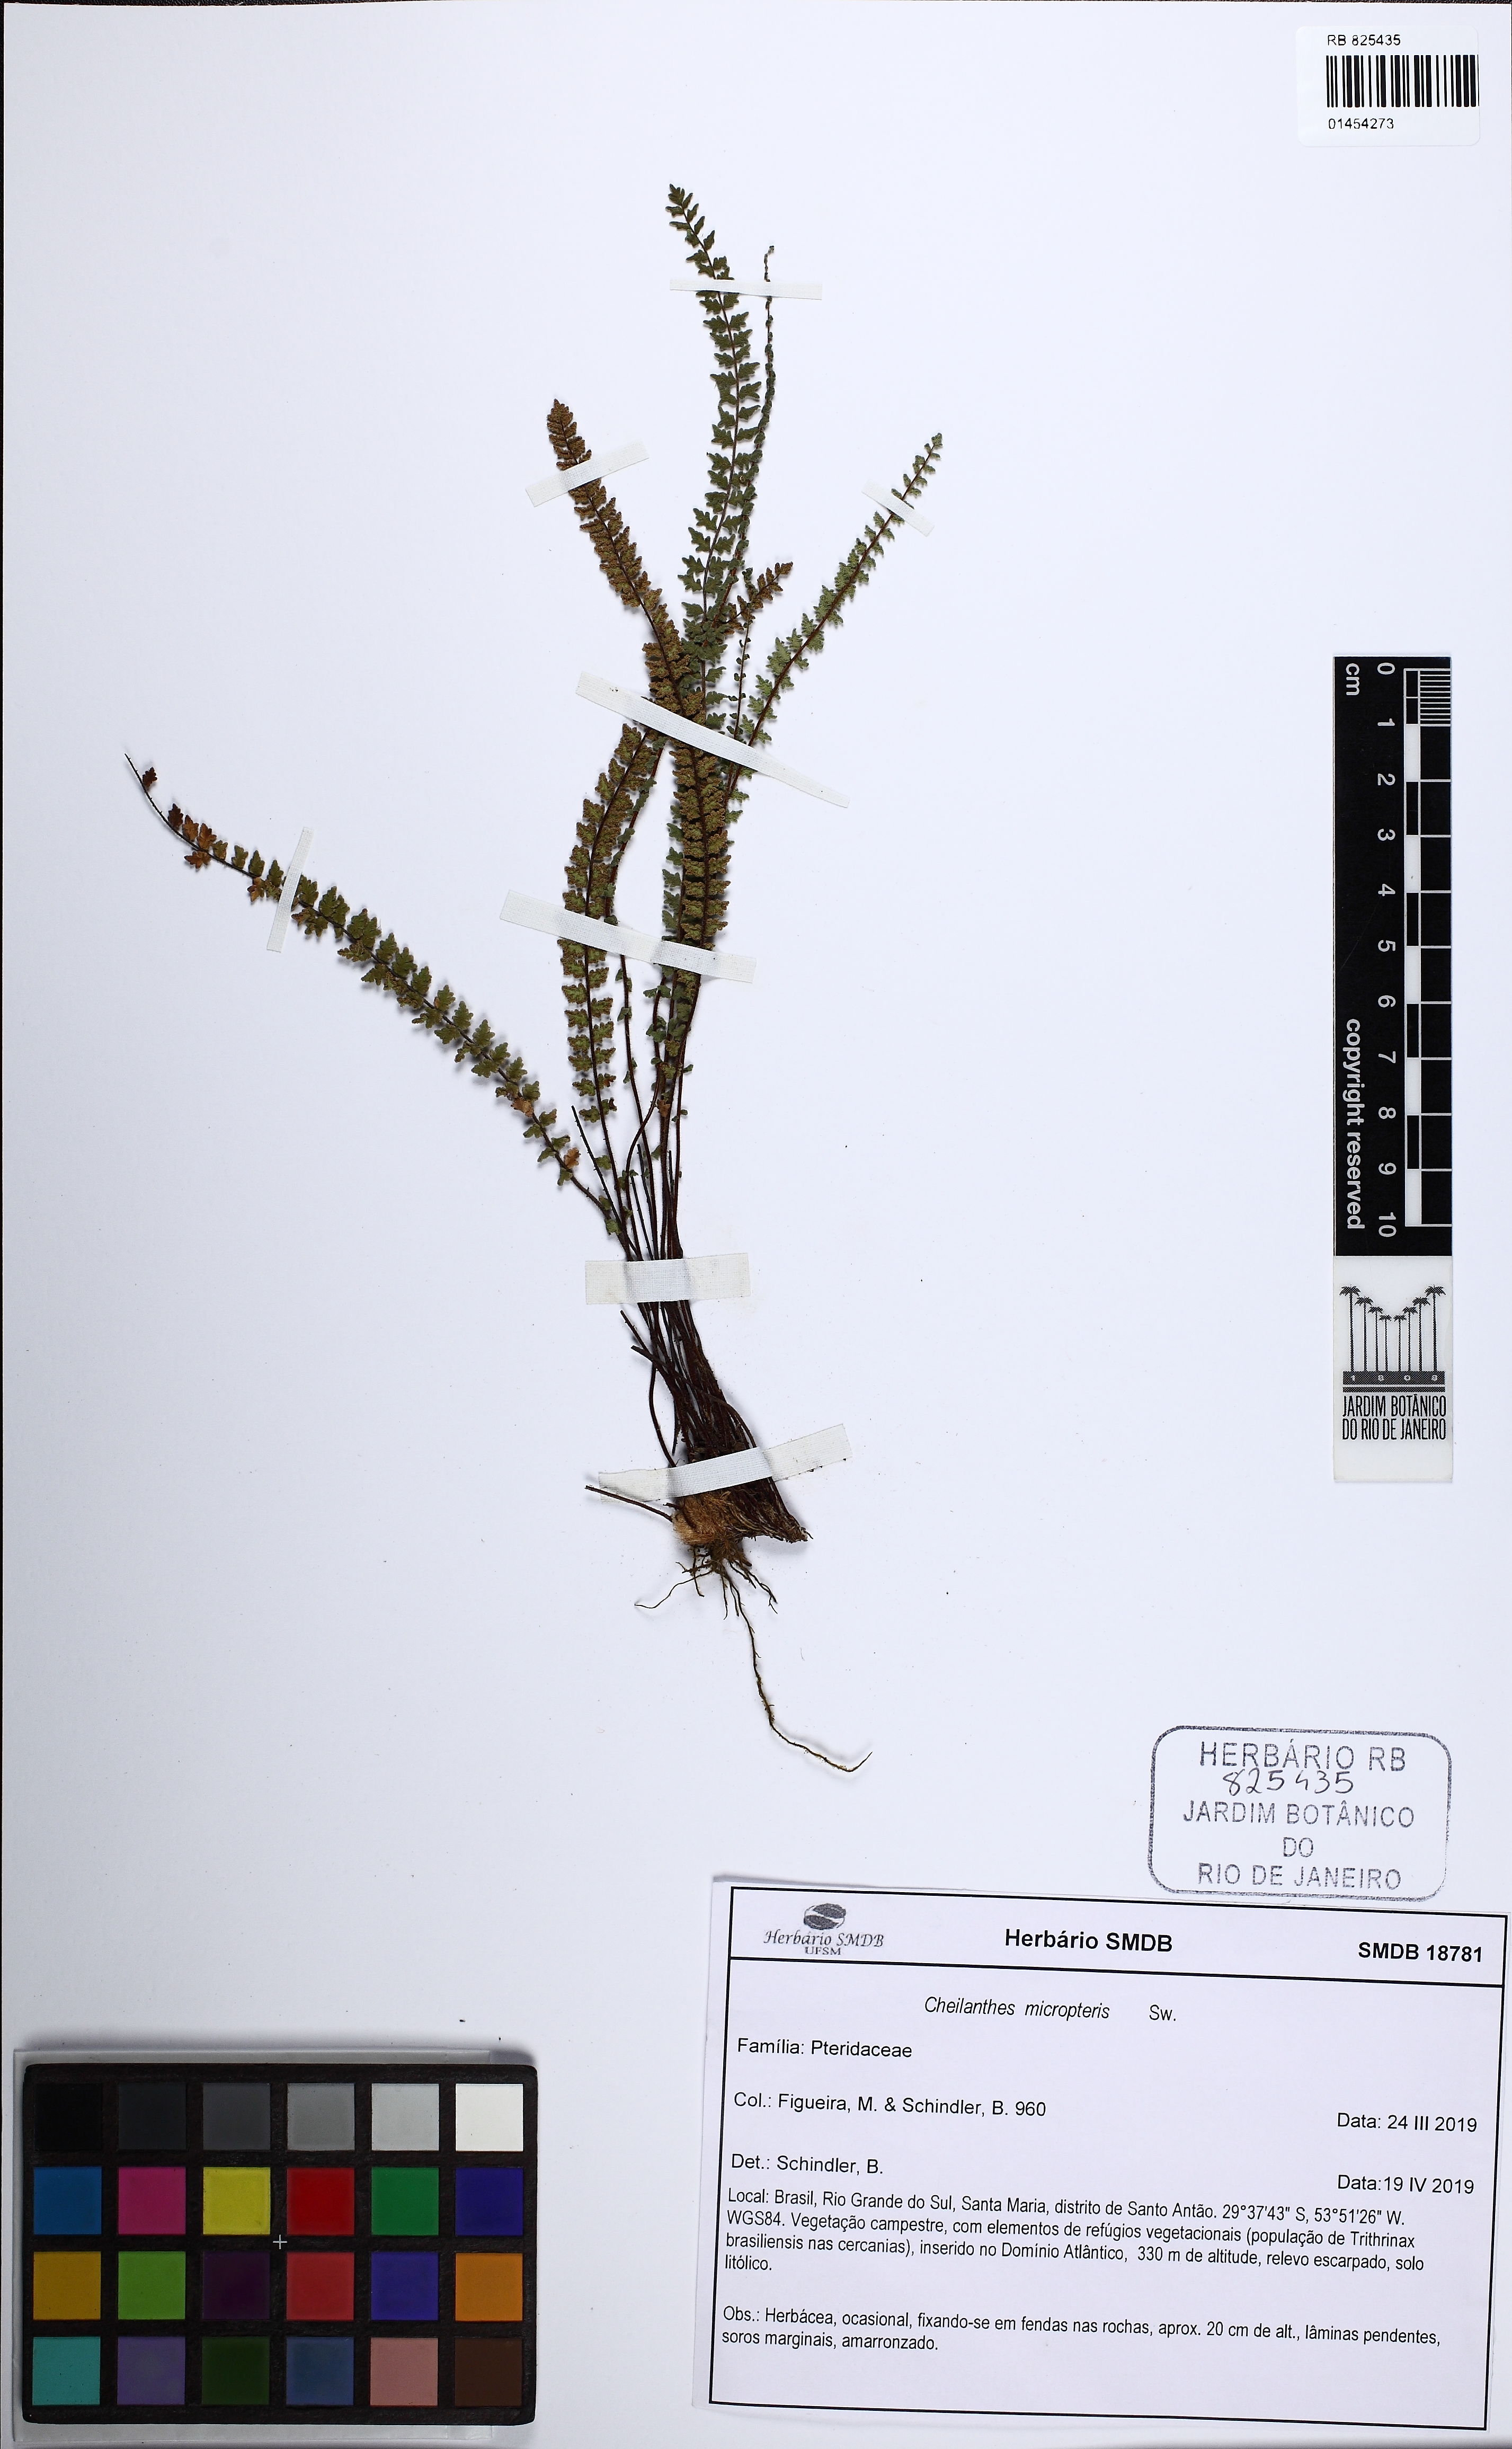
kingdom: Plantae
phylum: Tracheophyta
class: Polypodiopsida
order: Polypodiales
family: Pteridaceae
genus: Cheilanthes
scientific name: Cheilanthes micropteris
